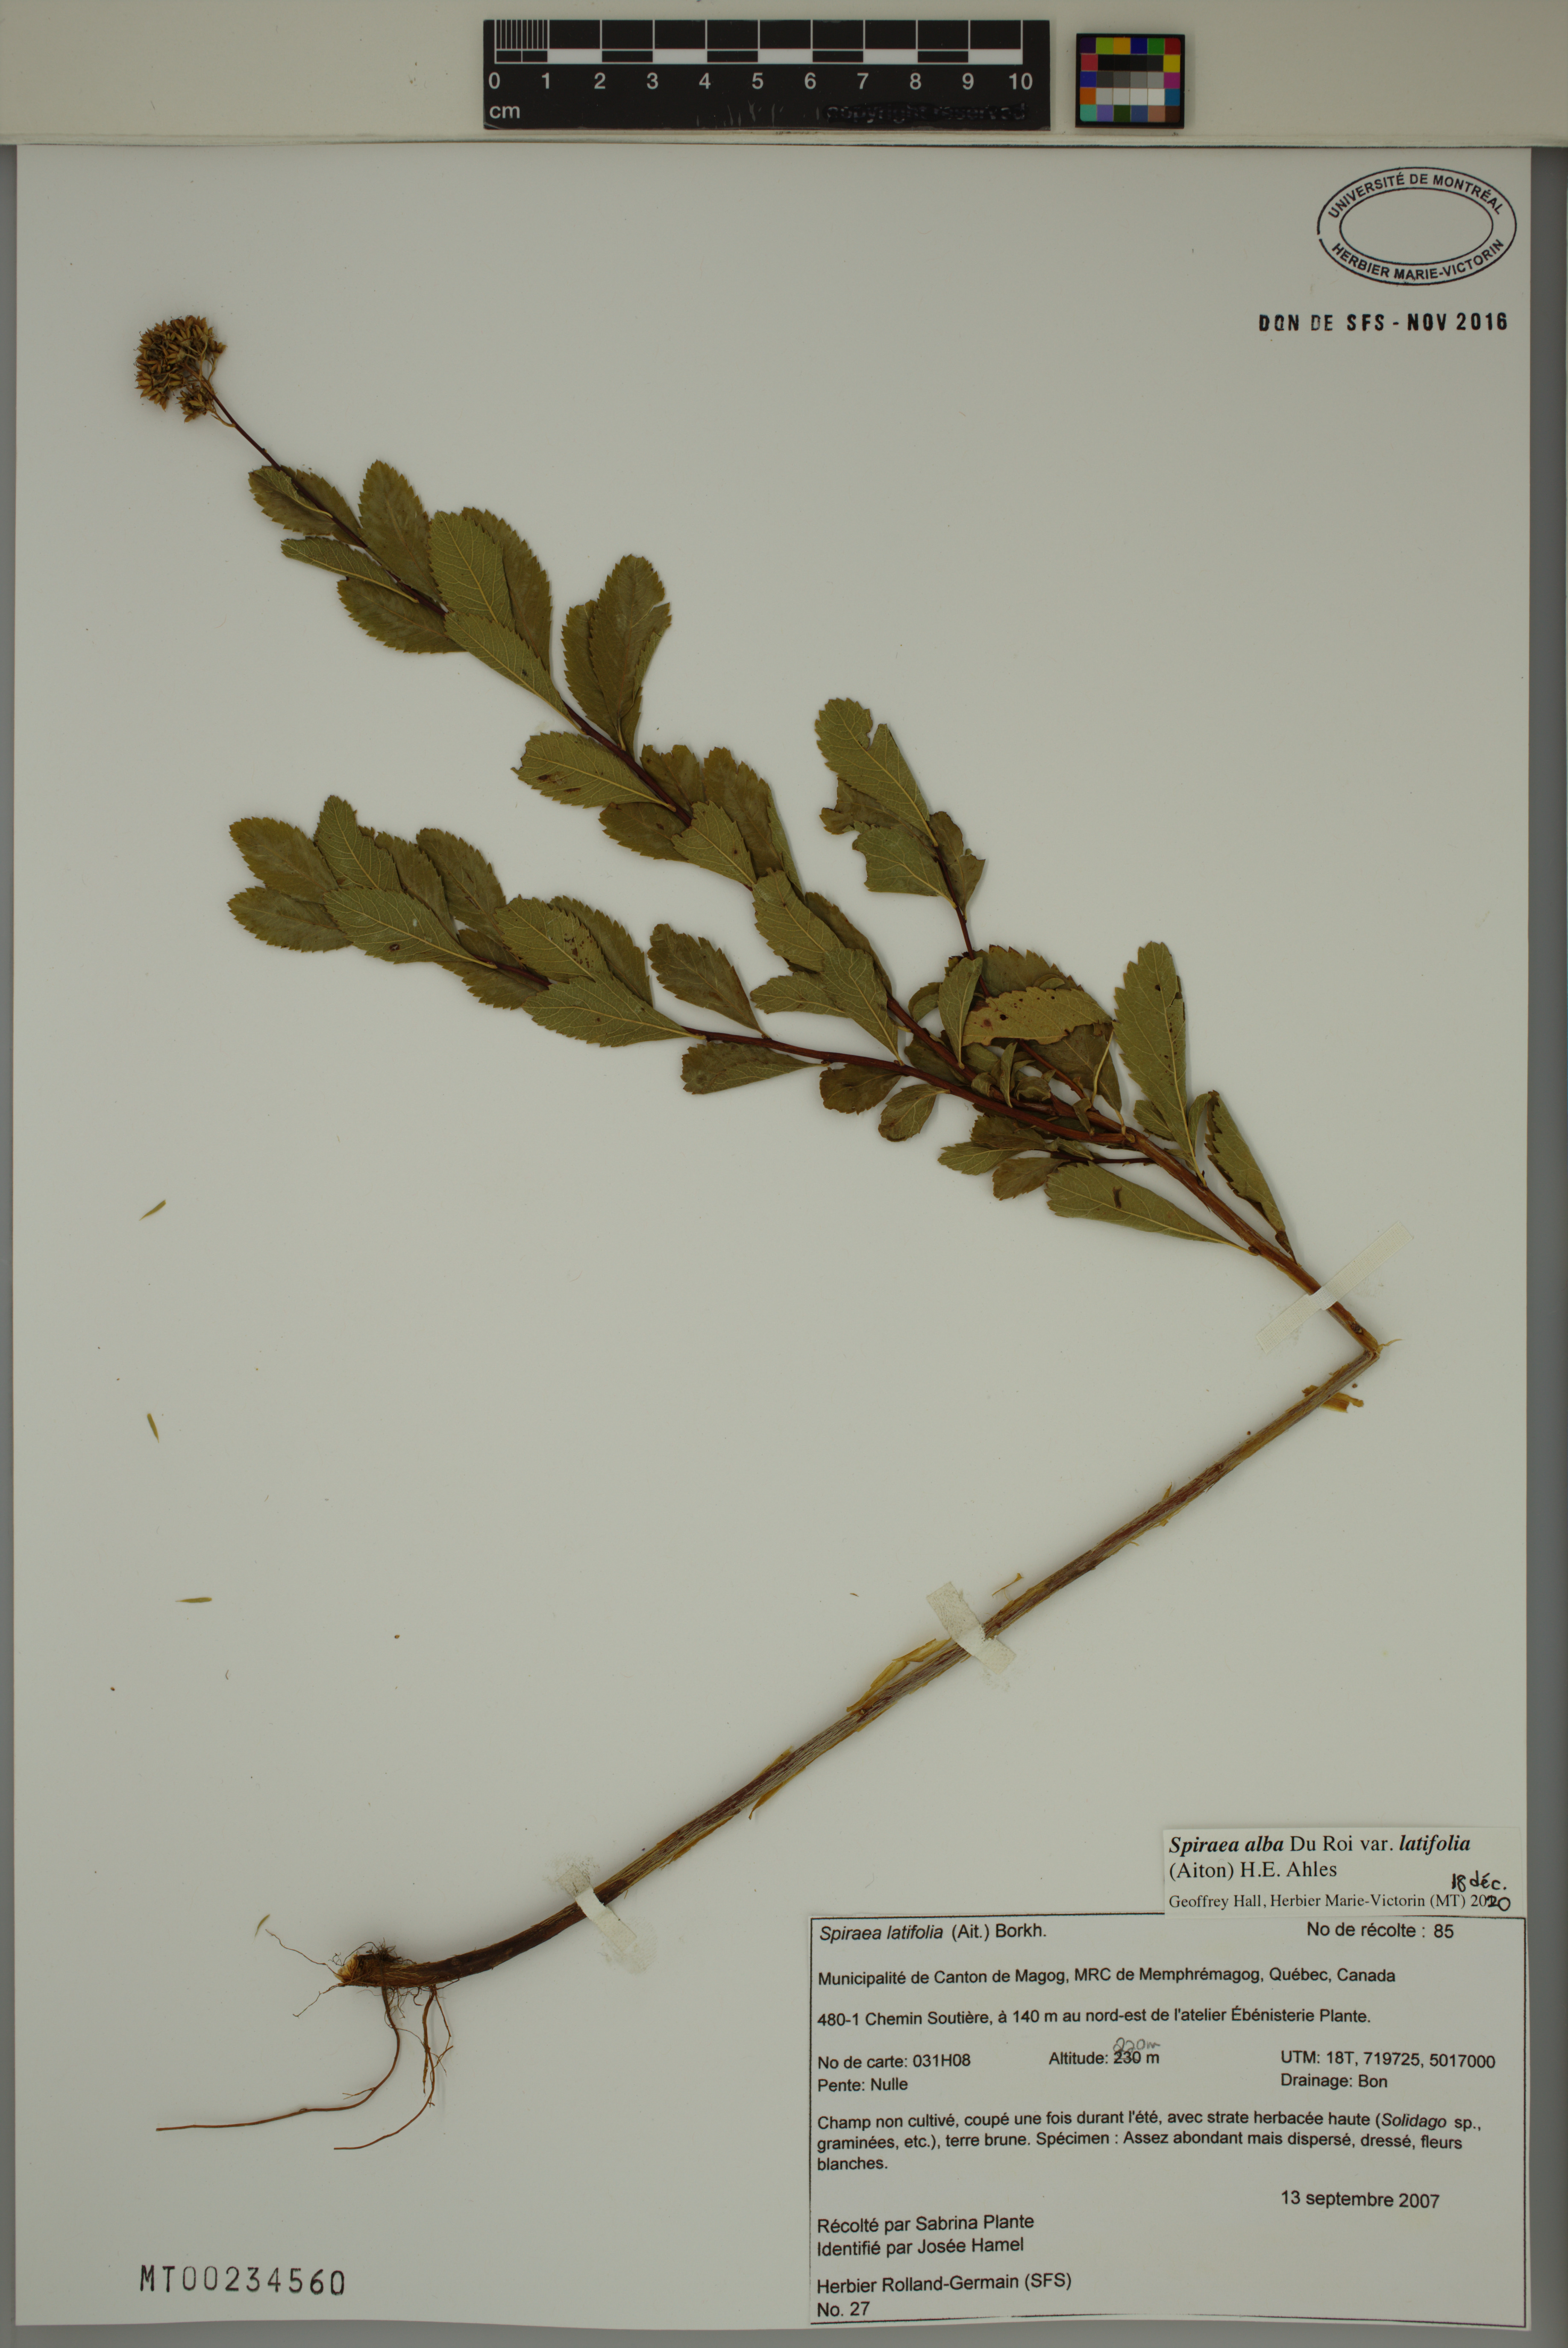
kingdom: Plantae
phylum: Tracheophyta
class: Magnoliopsida
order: Rosales
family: Rosaceae
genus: Spiraea
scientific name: Spiraea alba
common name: Pale bridewort
